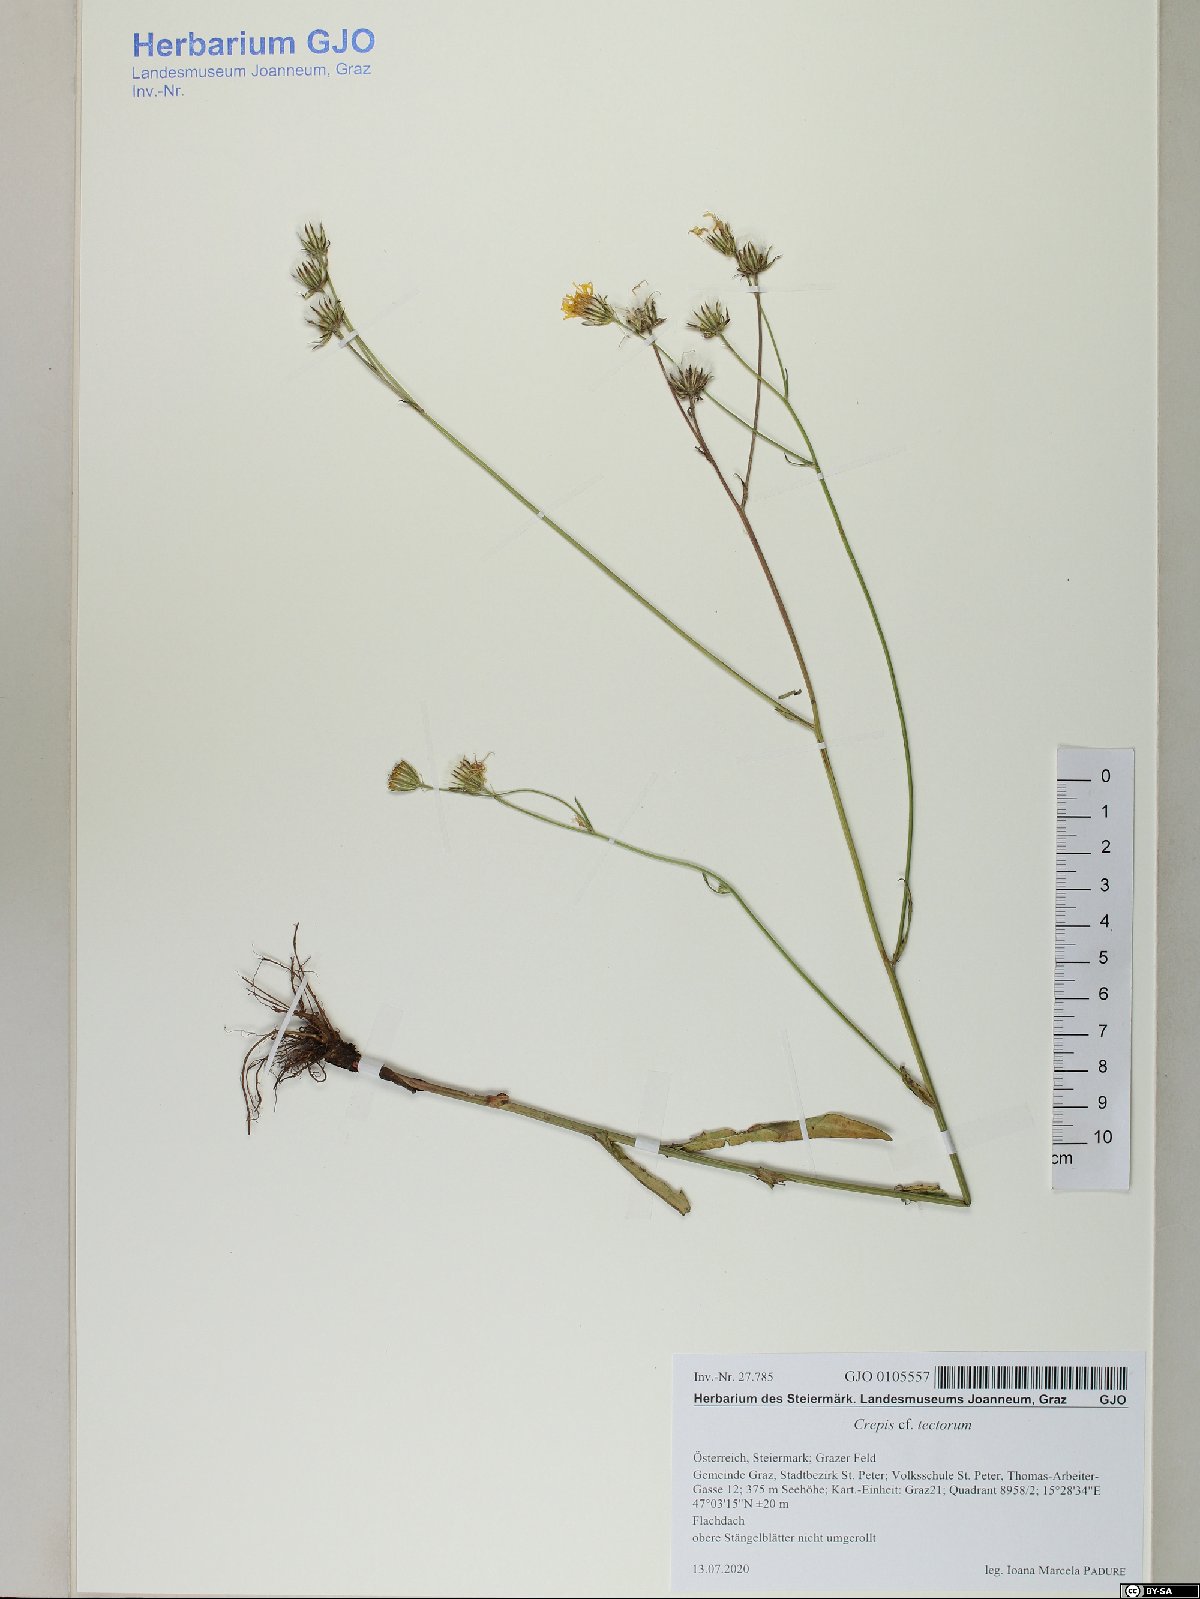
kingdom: Plantae
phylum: Tracheophyta
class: Magnoliopsida
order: Asterales
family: Asteraceae
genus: Crepis
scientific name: Crepis tectorum
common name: Narrow-leaved hawk's-beard
